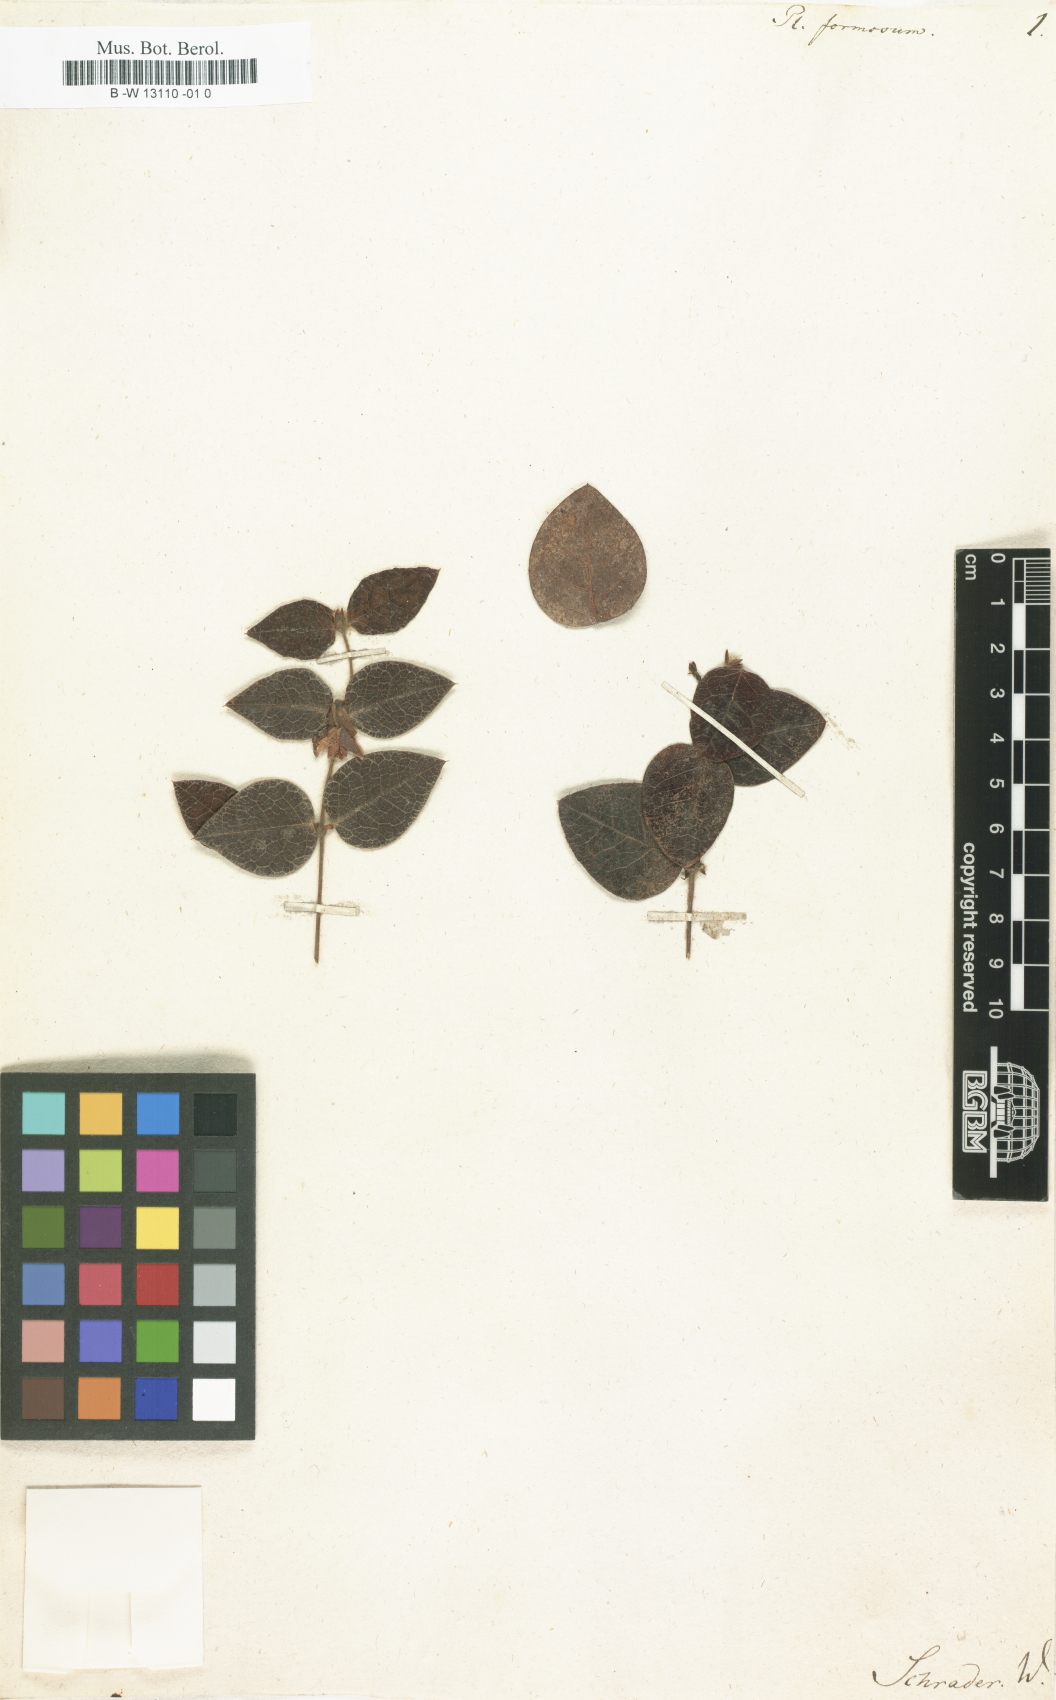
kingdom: Plantae
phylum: Tracheophyta
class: Magnoliopsida
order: Fabales
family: Fabaceae
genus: Platylobium
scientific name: Platylobium formosum
